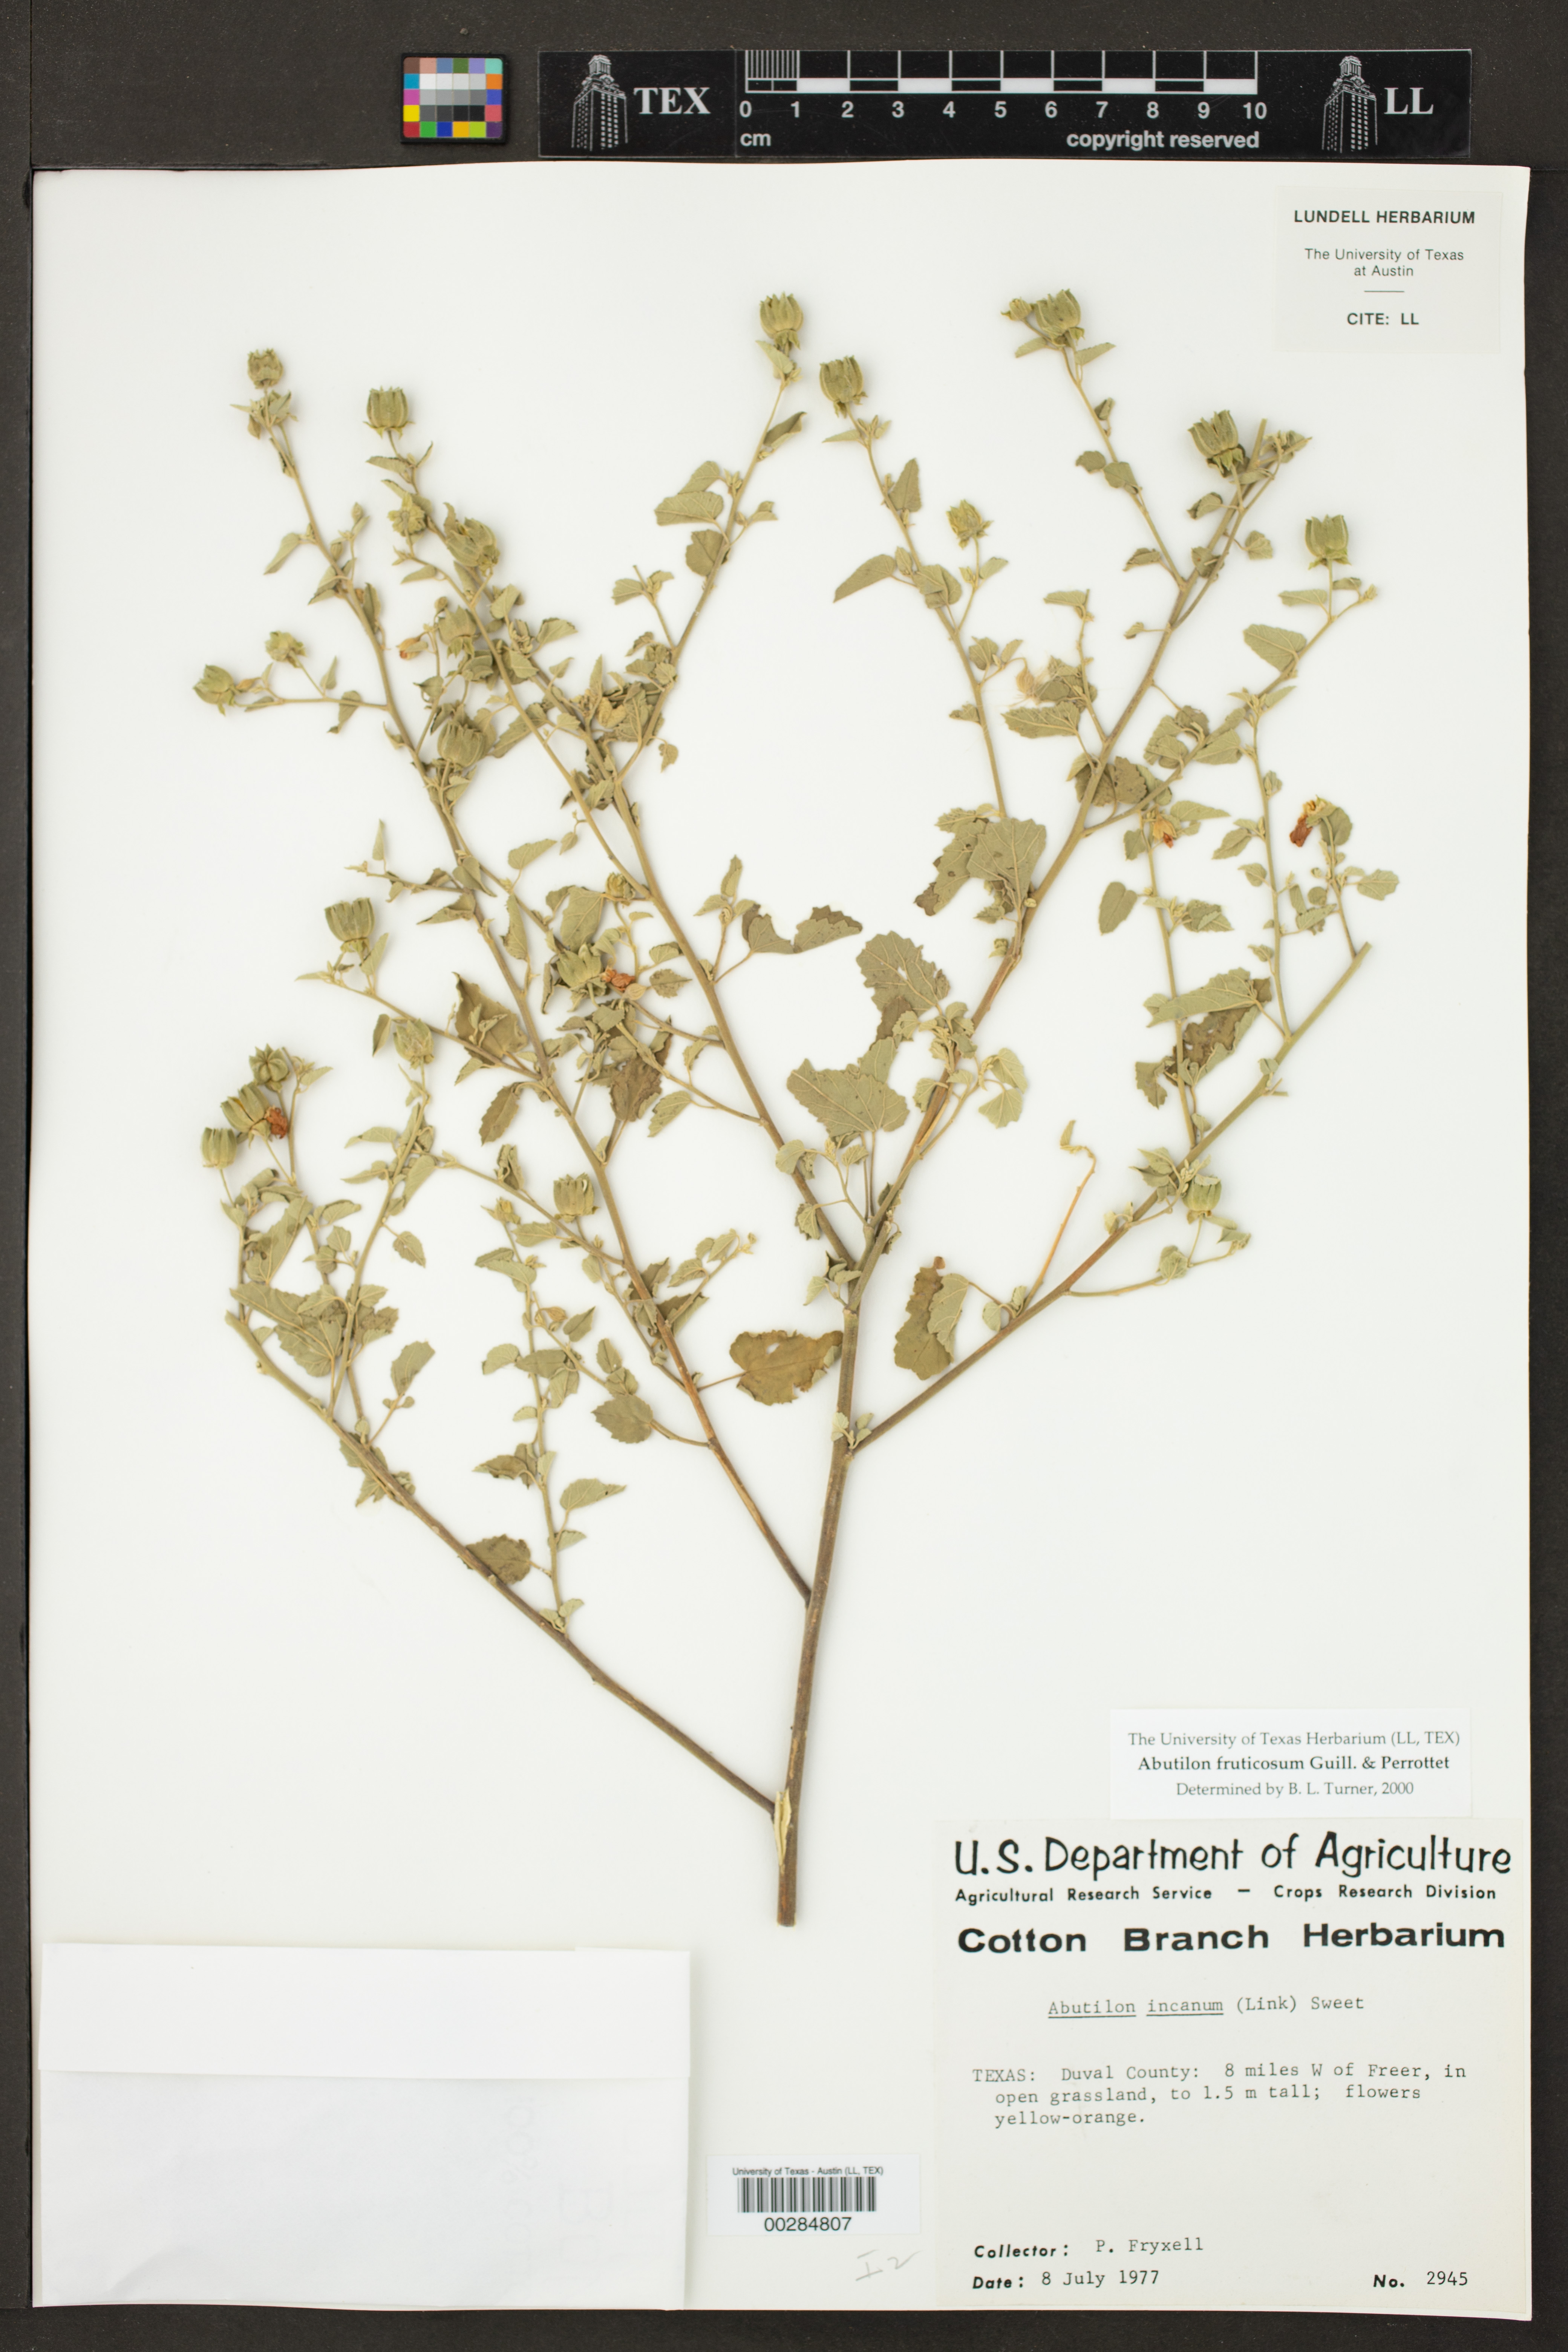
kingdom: Plantae
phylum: Tracheophyta
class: Magnoliopsida
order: Malvales
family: Malvaceae
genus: Abutilon
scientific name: Abutilon fruticosum
